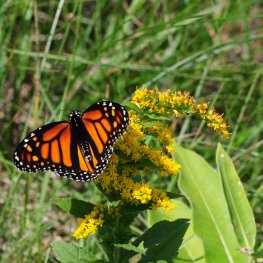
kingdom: Animalia
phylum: Arthropoda
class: Insecta
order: Lepidoptera
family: Nymphalidae
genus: Danaus
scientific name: Danaus plexippus
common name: Monarch
